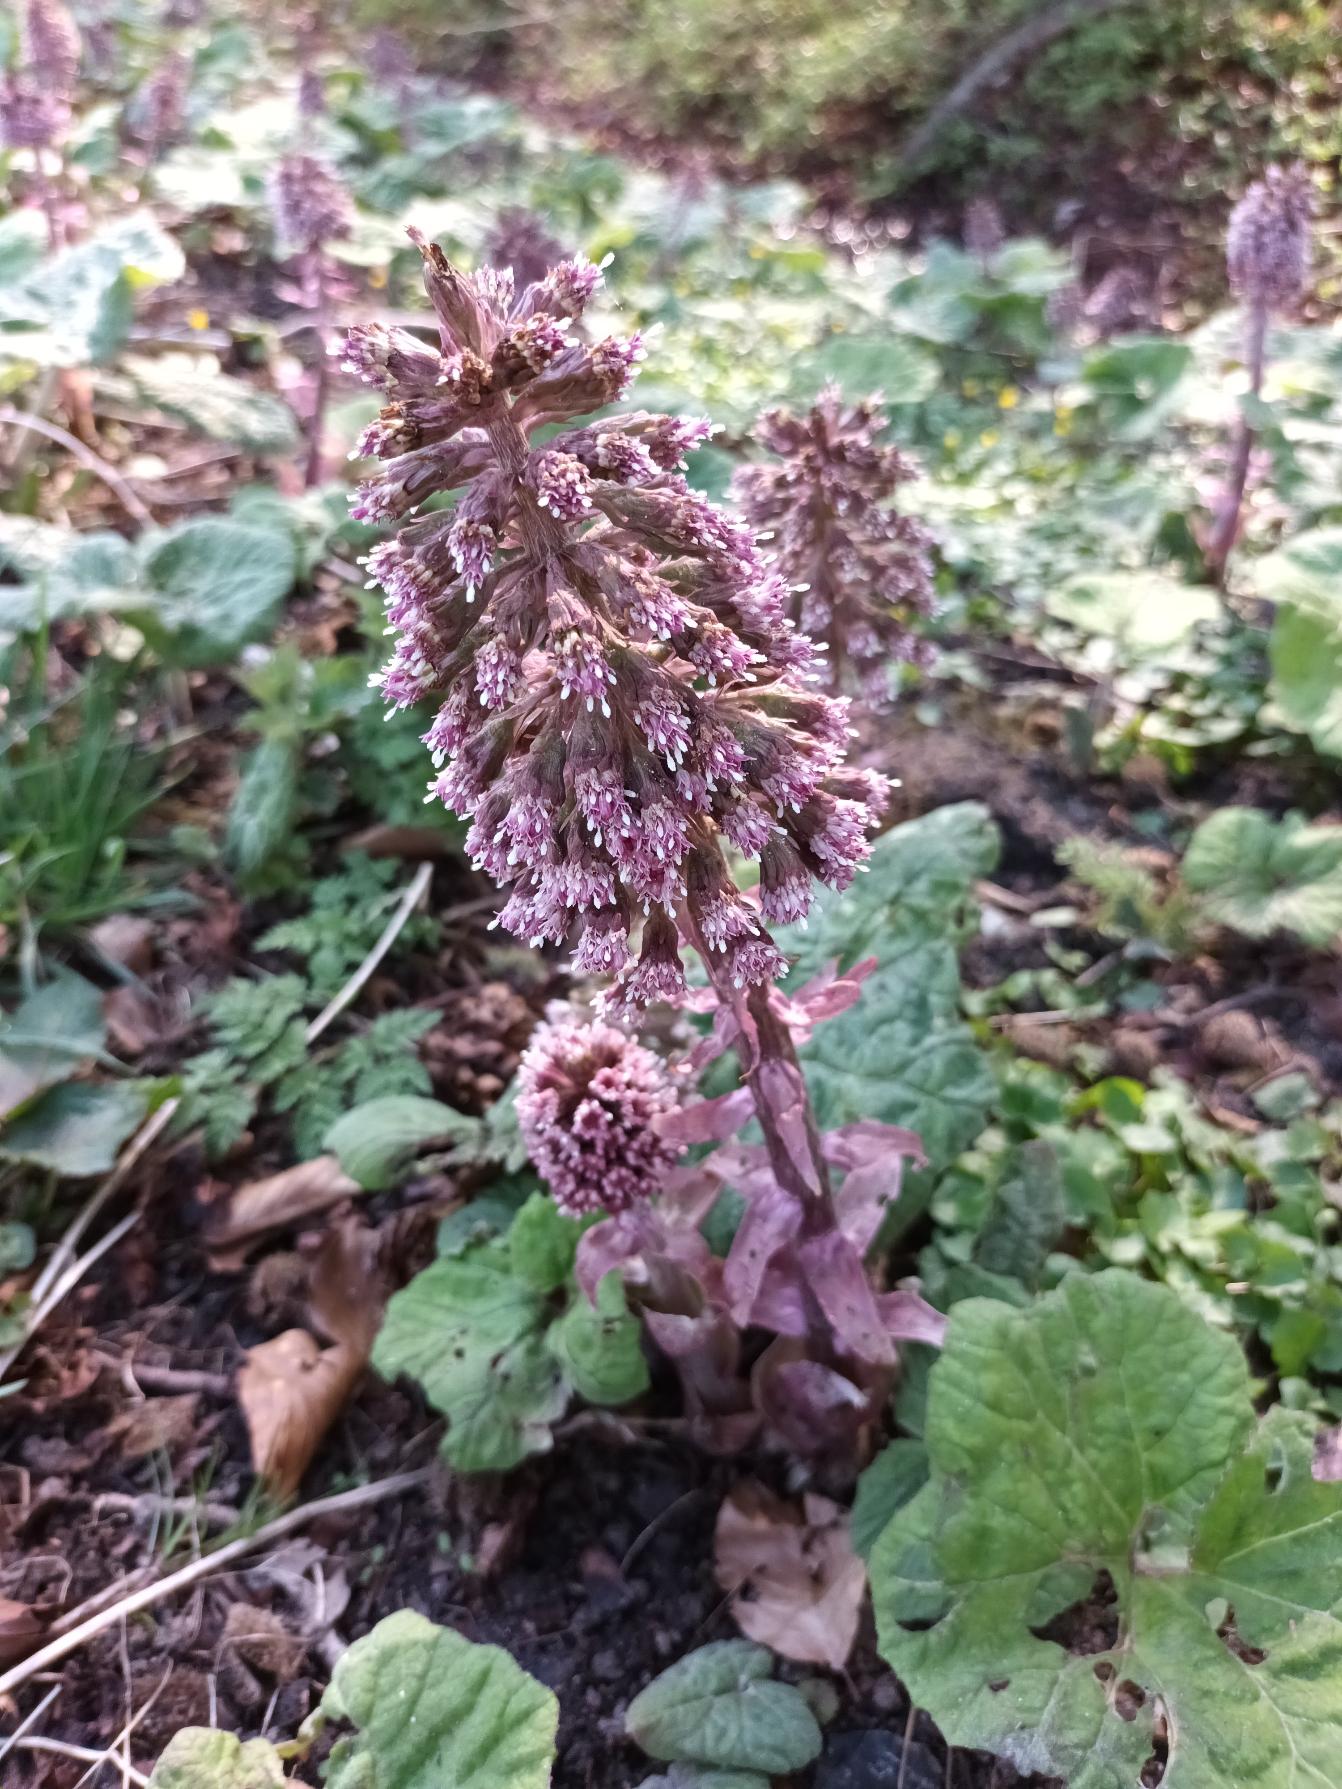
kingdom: Plantae
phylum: Tracheophyta
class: Magnoliopsida
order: Asterales
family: Asteraceae
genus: Petasites
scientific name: Petasites hybridus
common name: Rød hestehov
